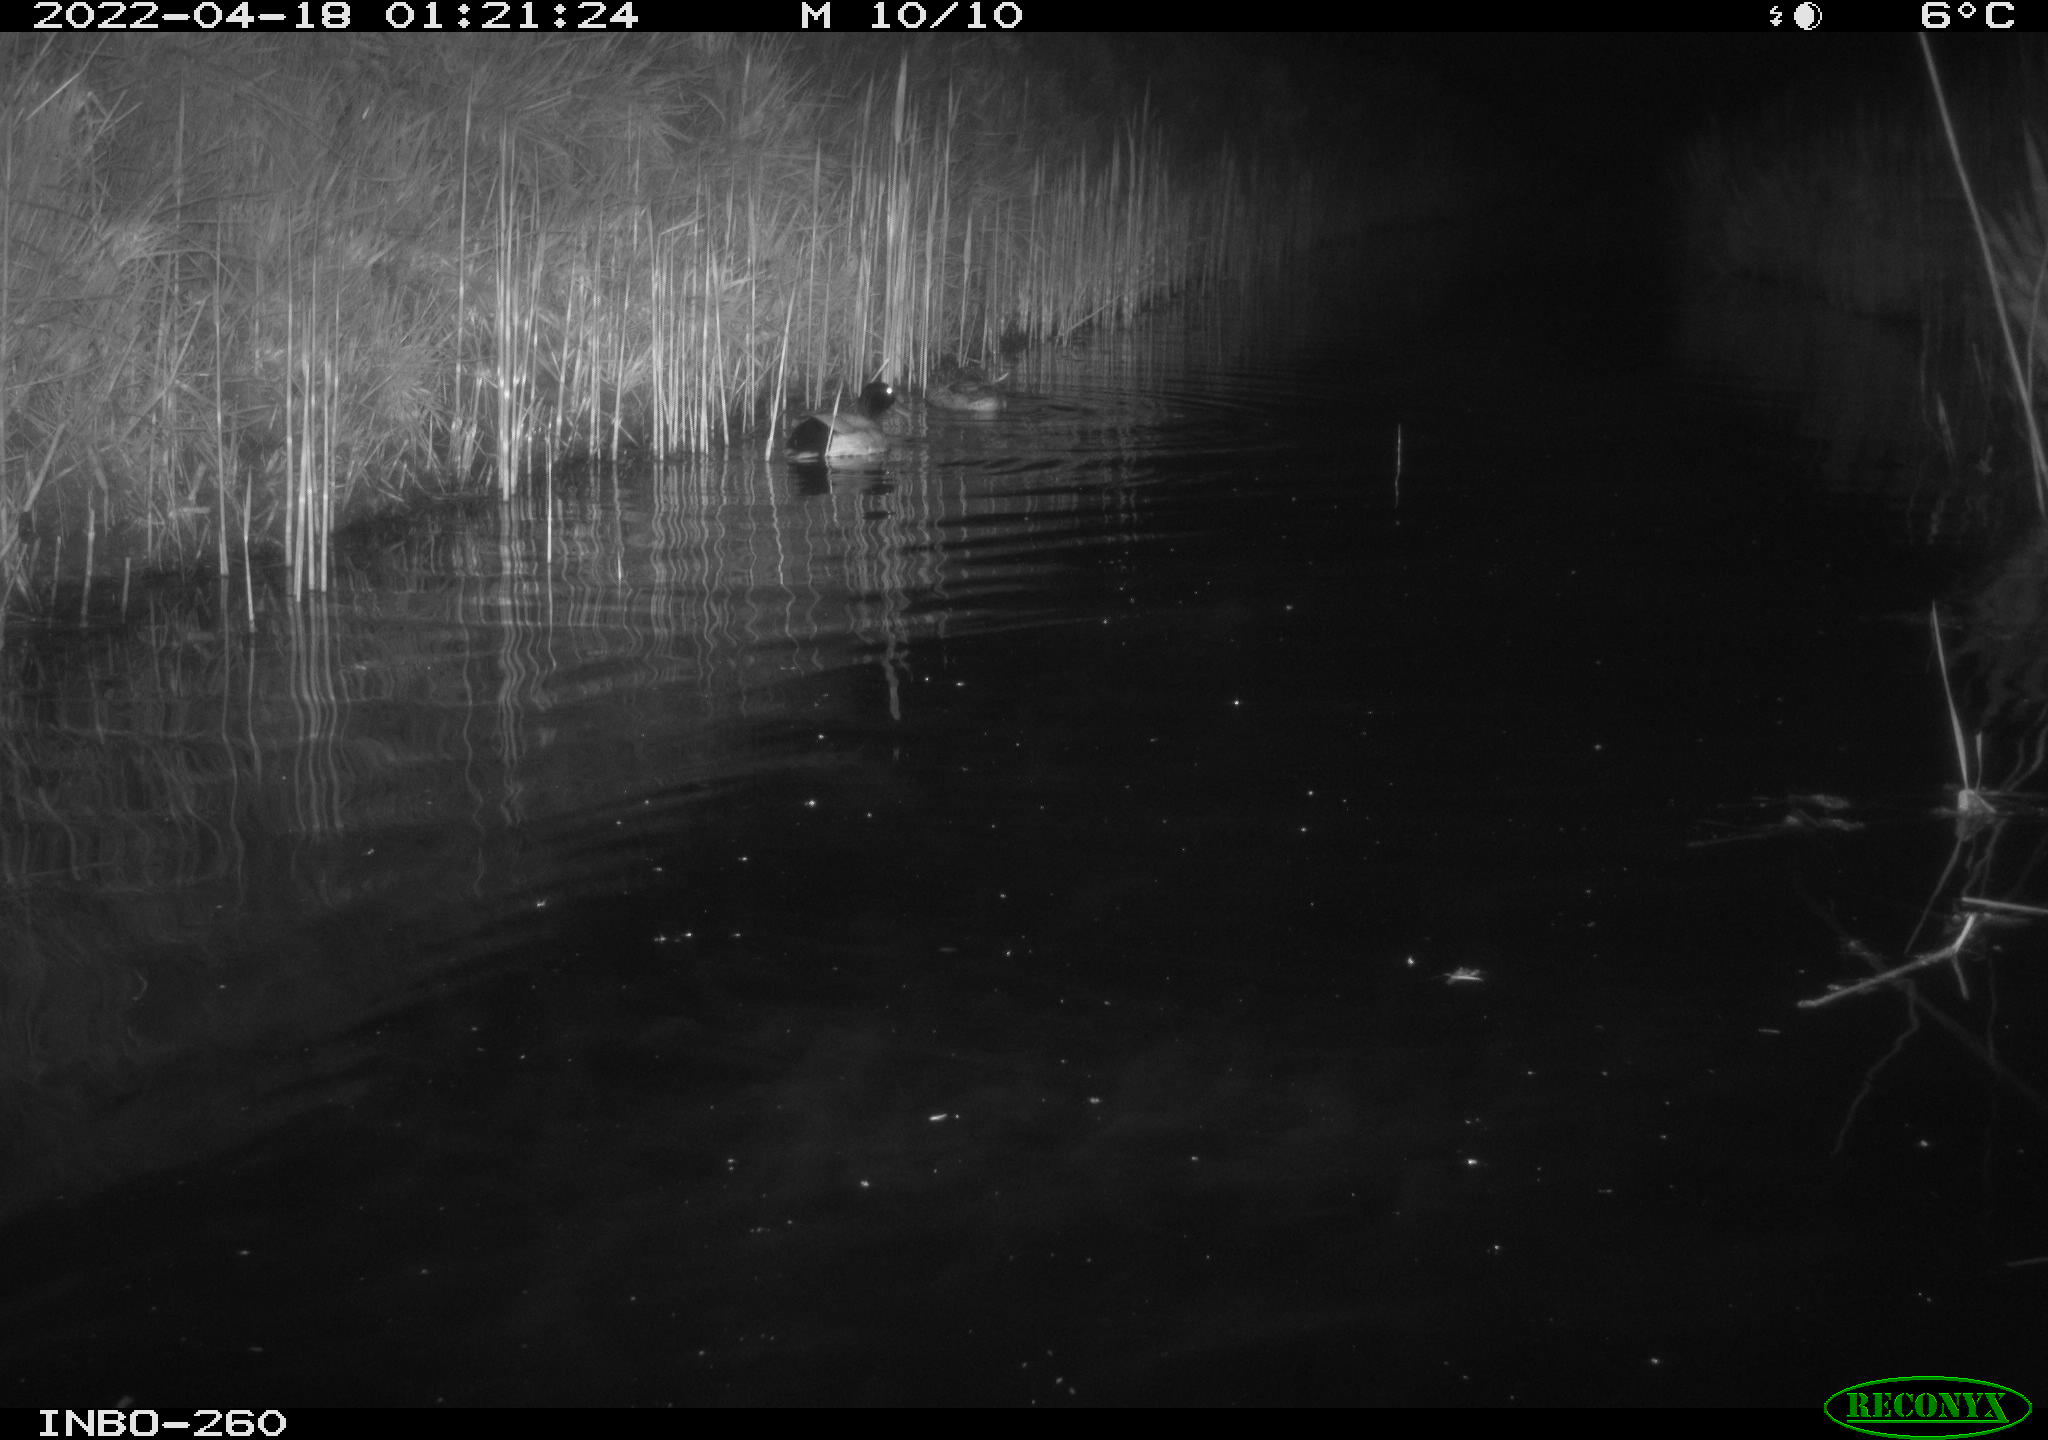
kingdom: Animalia
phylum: Chordata
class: Mammalia
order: Rodentia
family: Muridae
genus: Rattus
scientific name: Rattus norvegicus
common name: Brown rat
